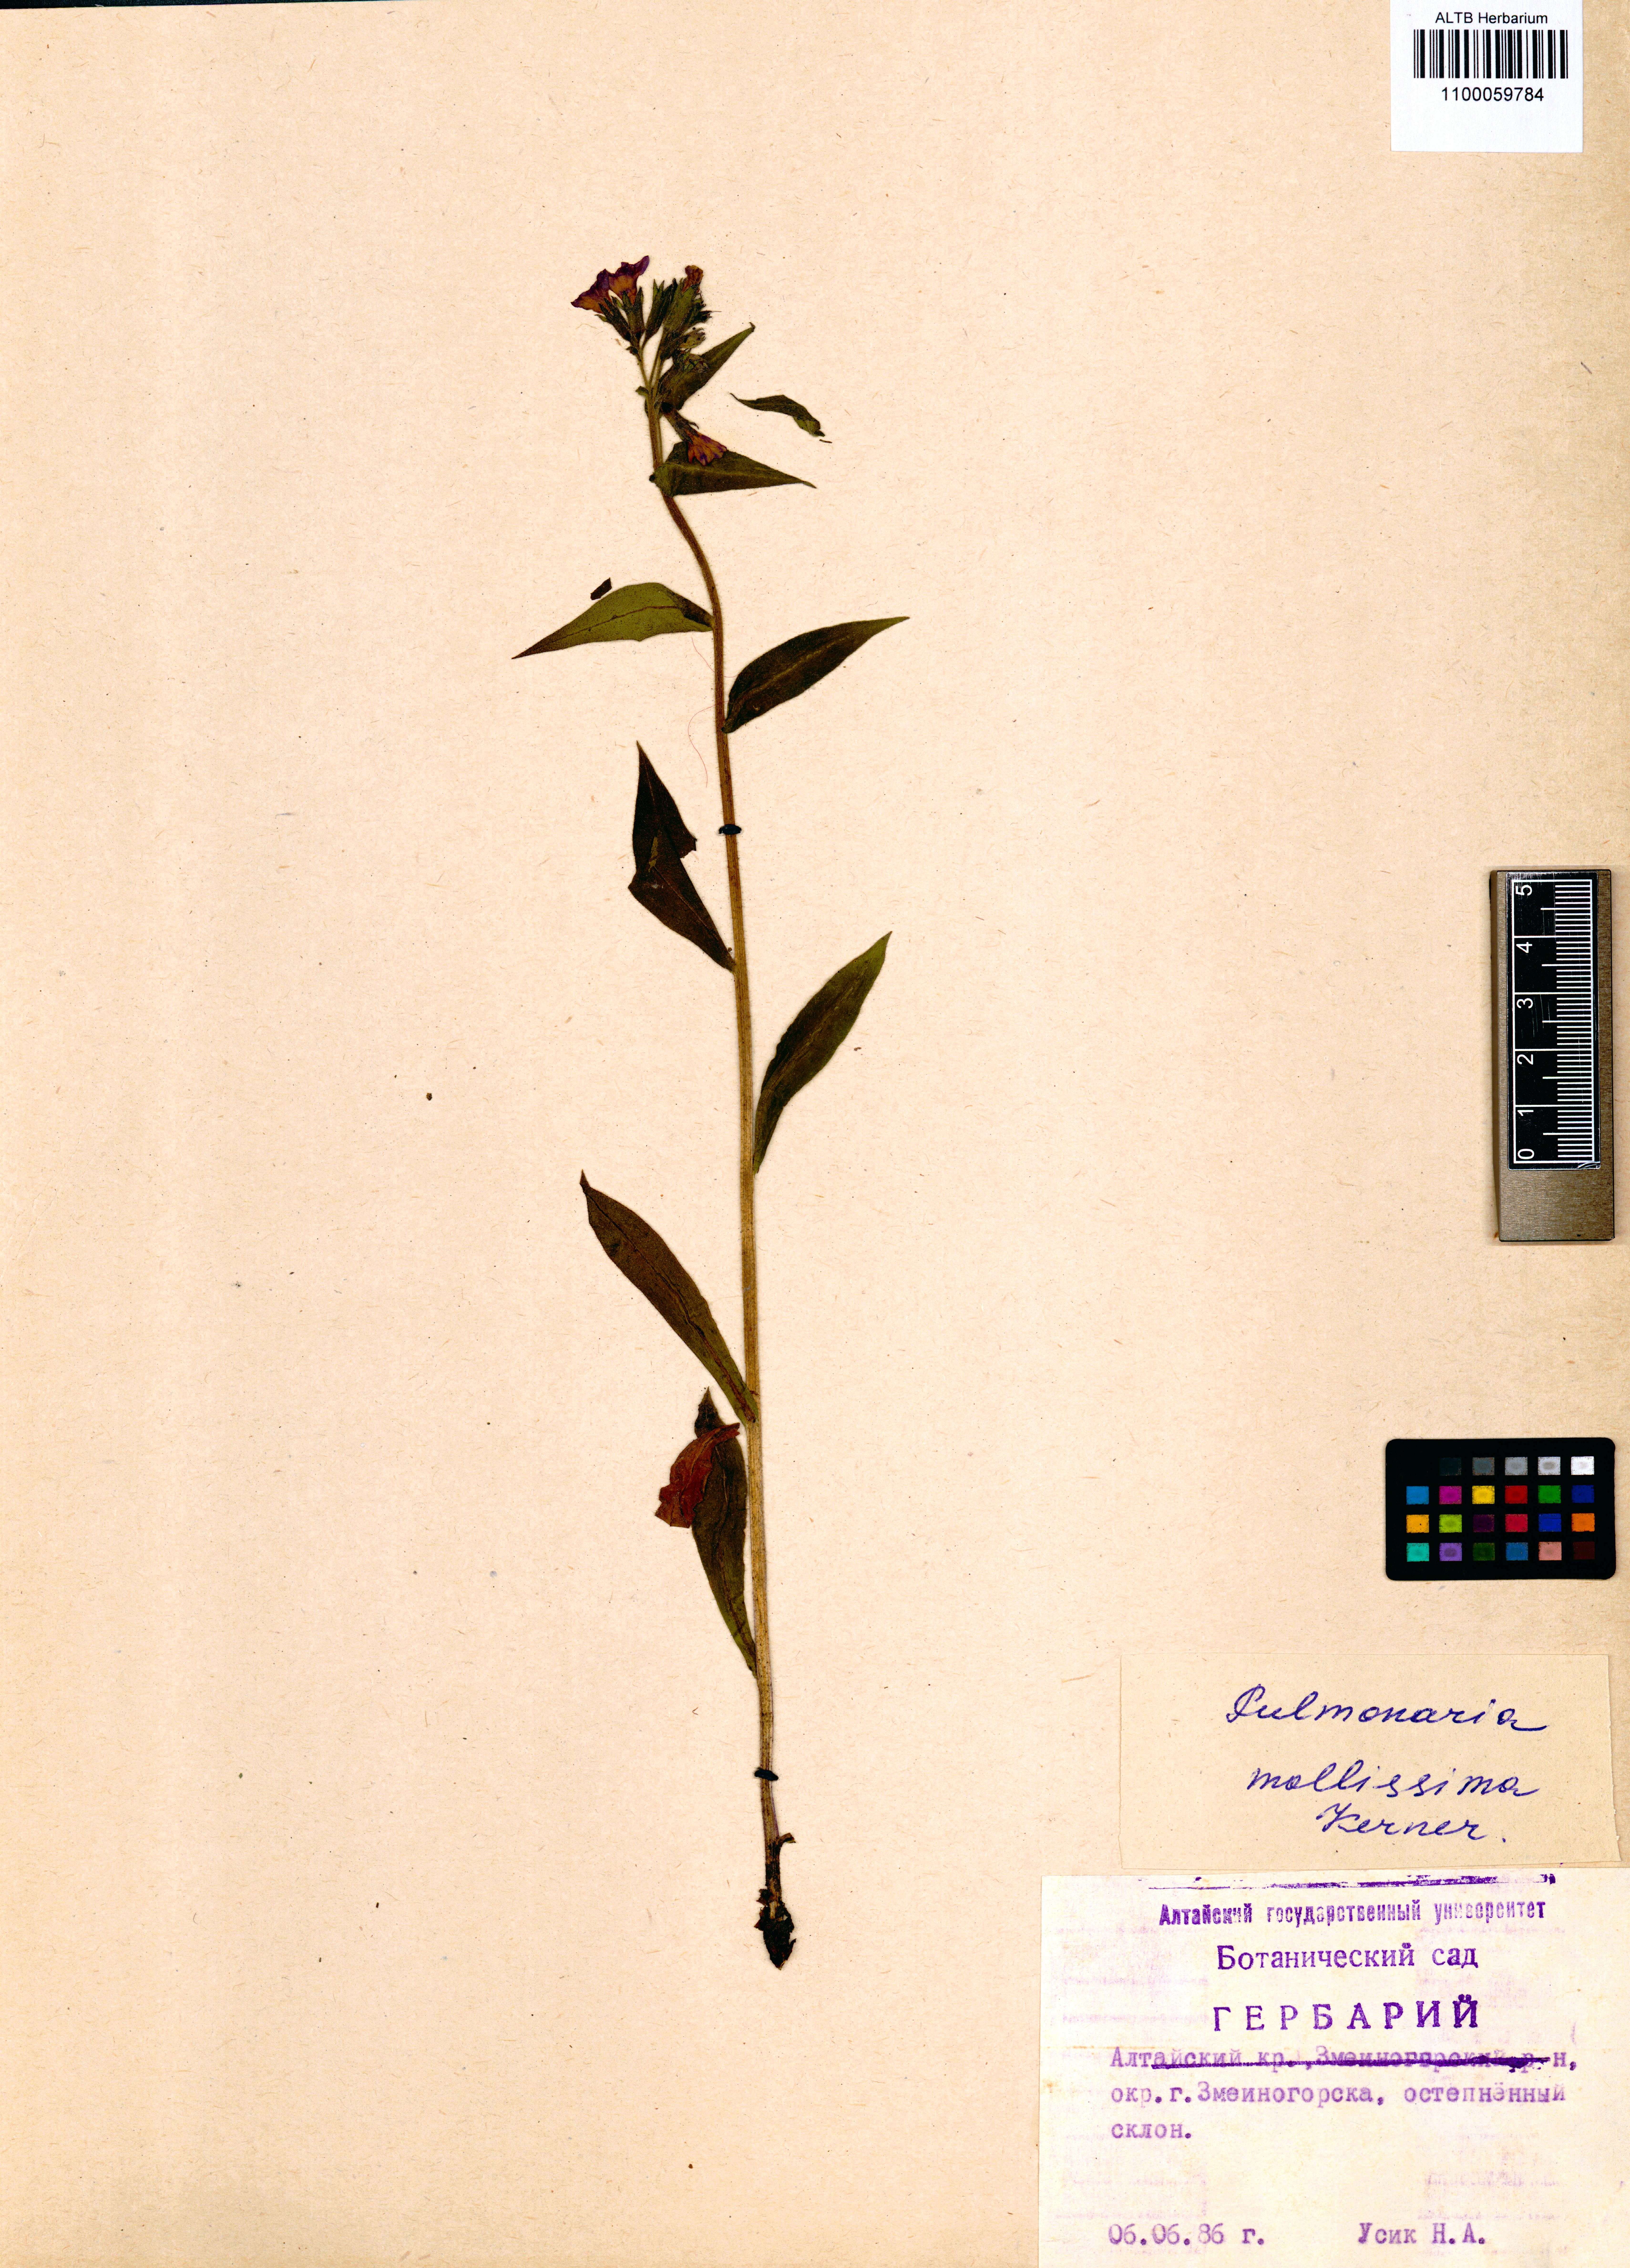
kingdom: Plantae
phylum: Tracheophyta
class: Magnoliopsida
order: Boraginales
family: Boraginaceae
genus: Pulmonaria
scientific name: Pulmonaria mollis
